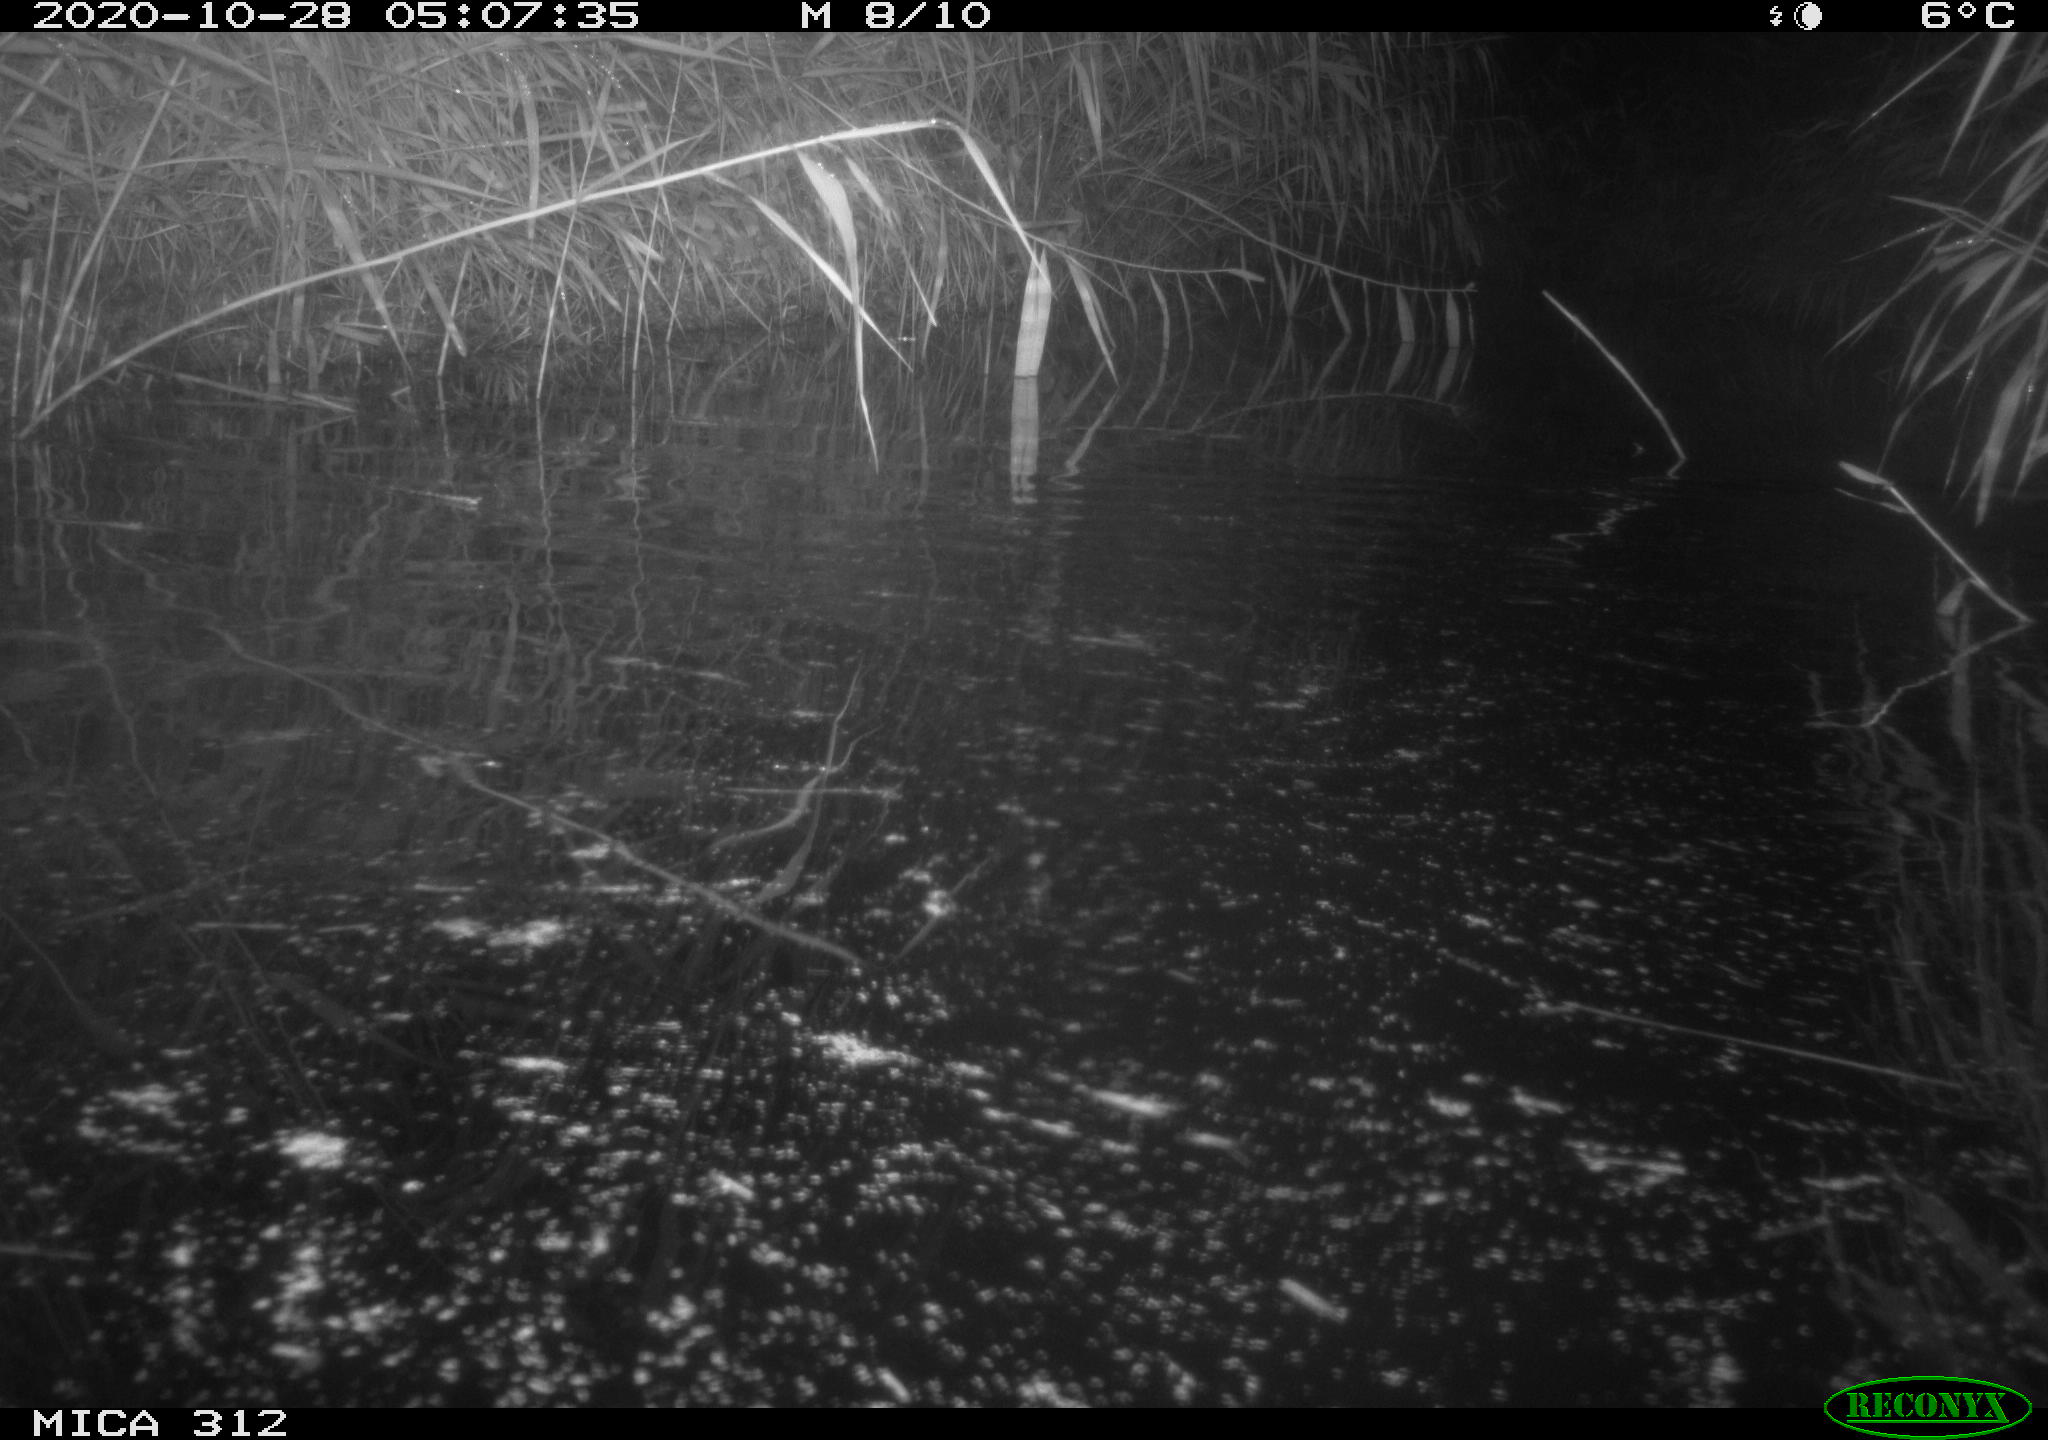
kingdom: Animalia
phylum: Chordata
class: Mammalia
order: Rodentia
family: Muridae
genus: Rattus
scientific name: Rattus norvegicus
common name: Brown rat
